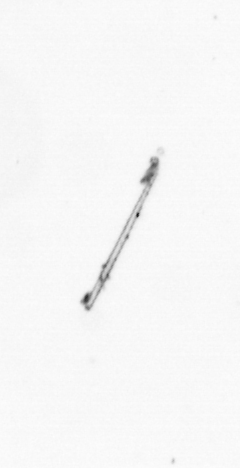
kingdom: Chromista
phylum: Ochrophyta
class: Bacillariophyceae
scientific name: Bacillariophyceae
